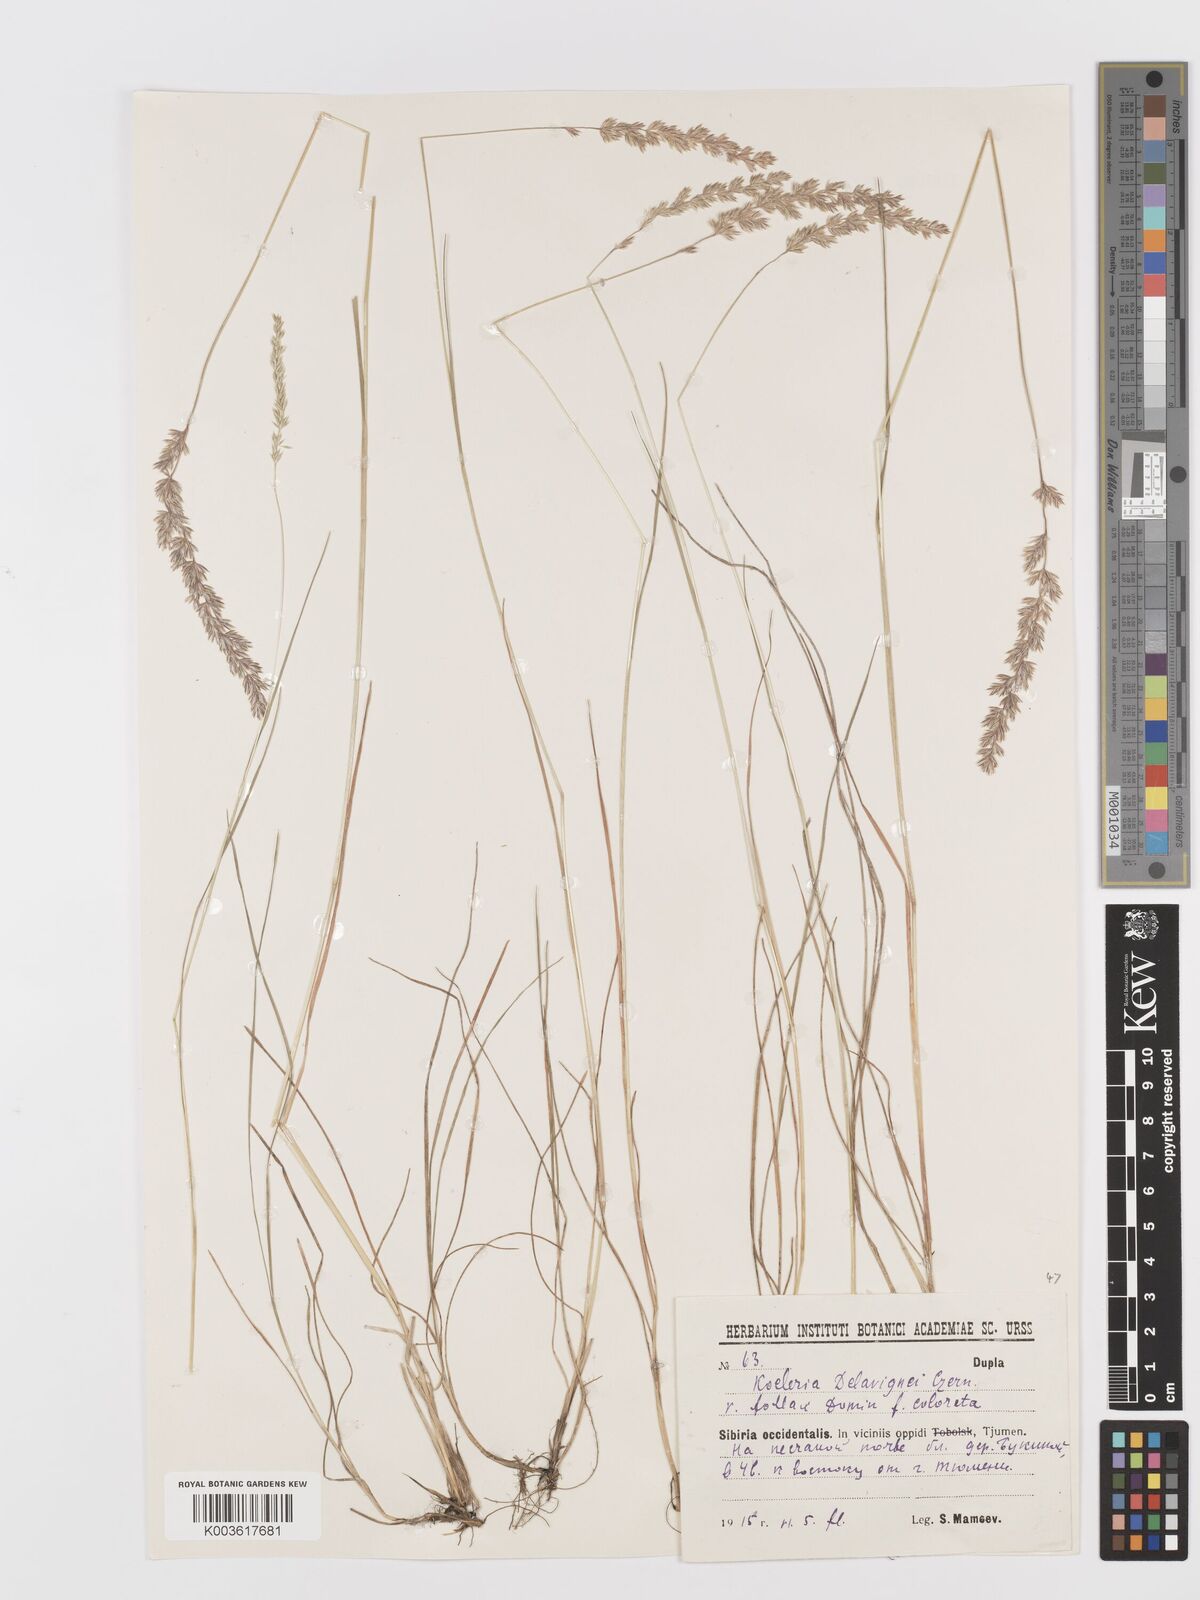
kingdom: Plantae
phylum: Tracheophyta
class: Liliopsida
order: Poales
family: Poaceae
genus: Koeleria
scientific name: Koeleria delavignei
